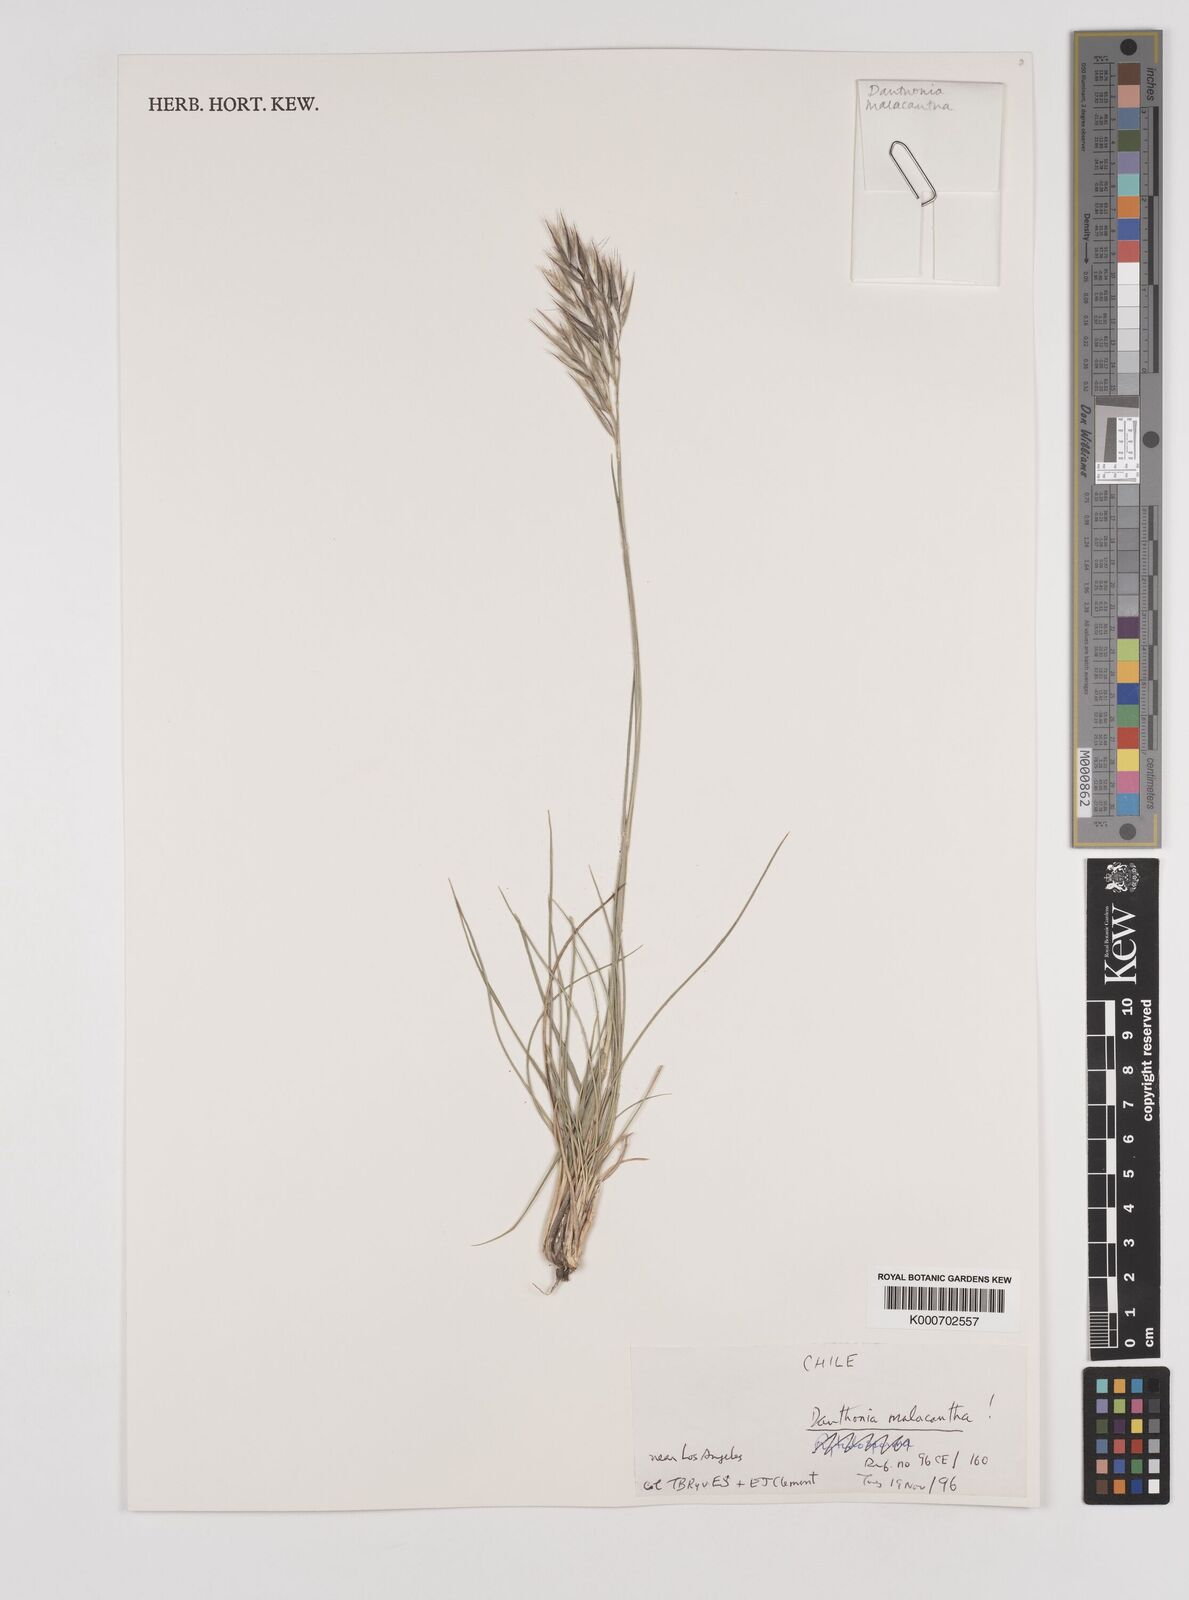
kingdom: Plantae
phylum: Tracheophyta
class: Liliopsida
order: Poales
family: Poaceae
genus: Danthonia
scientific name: Danthonia malacantha
